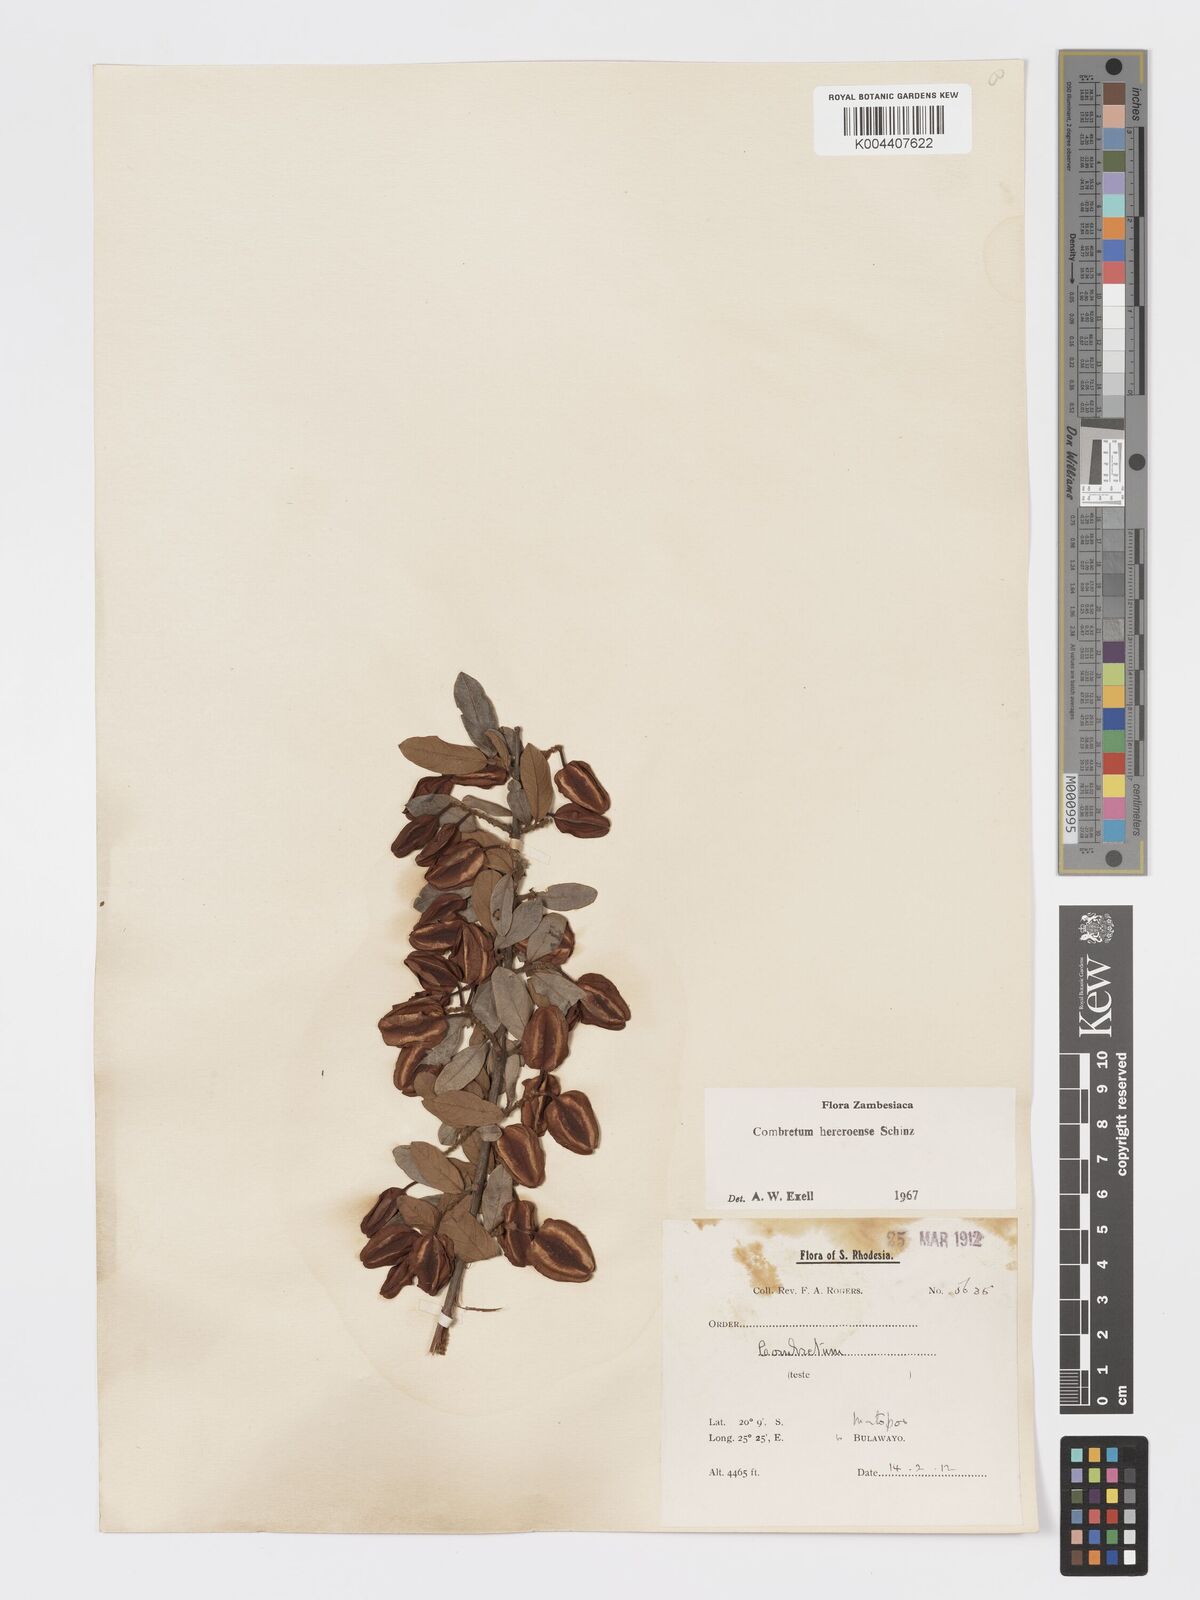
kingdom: Plantae
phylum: Tracheophyta
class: Magnoliopsida
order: Myrtales
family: Combretaceae
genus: Combretum
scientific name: Combretum hereroense
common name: Russet bushwillow
